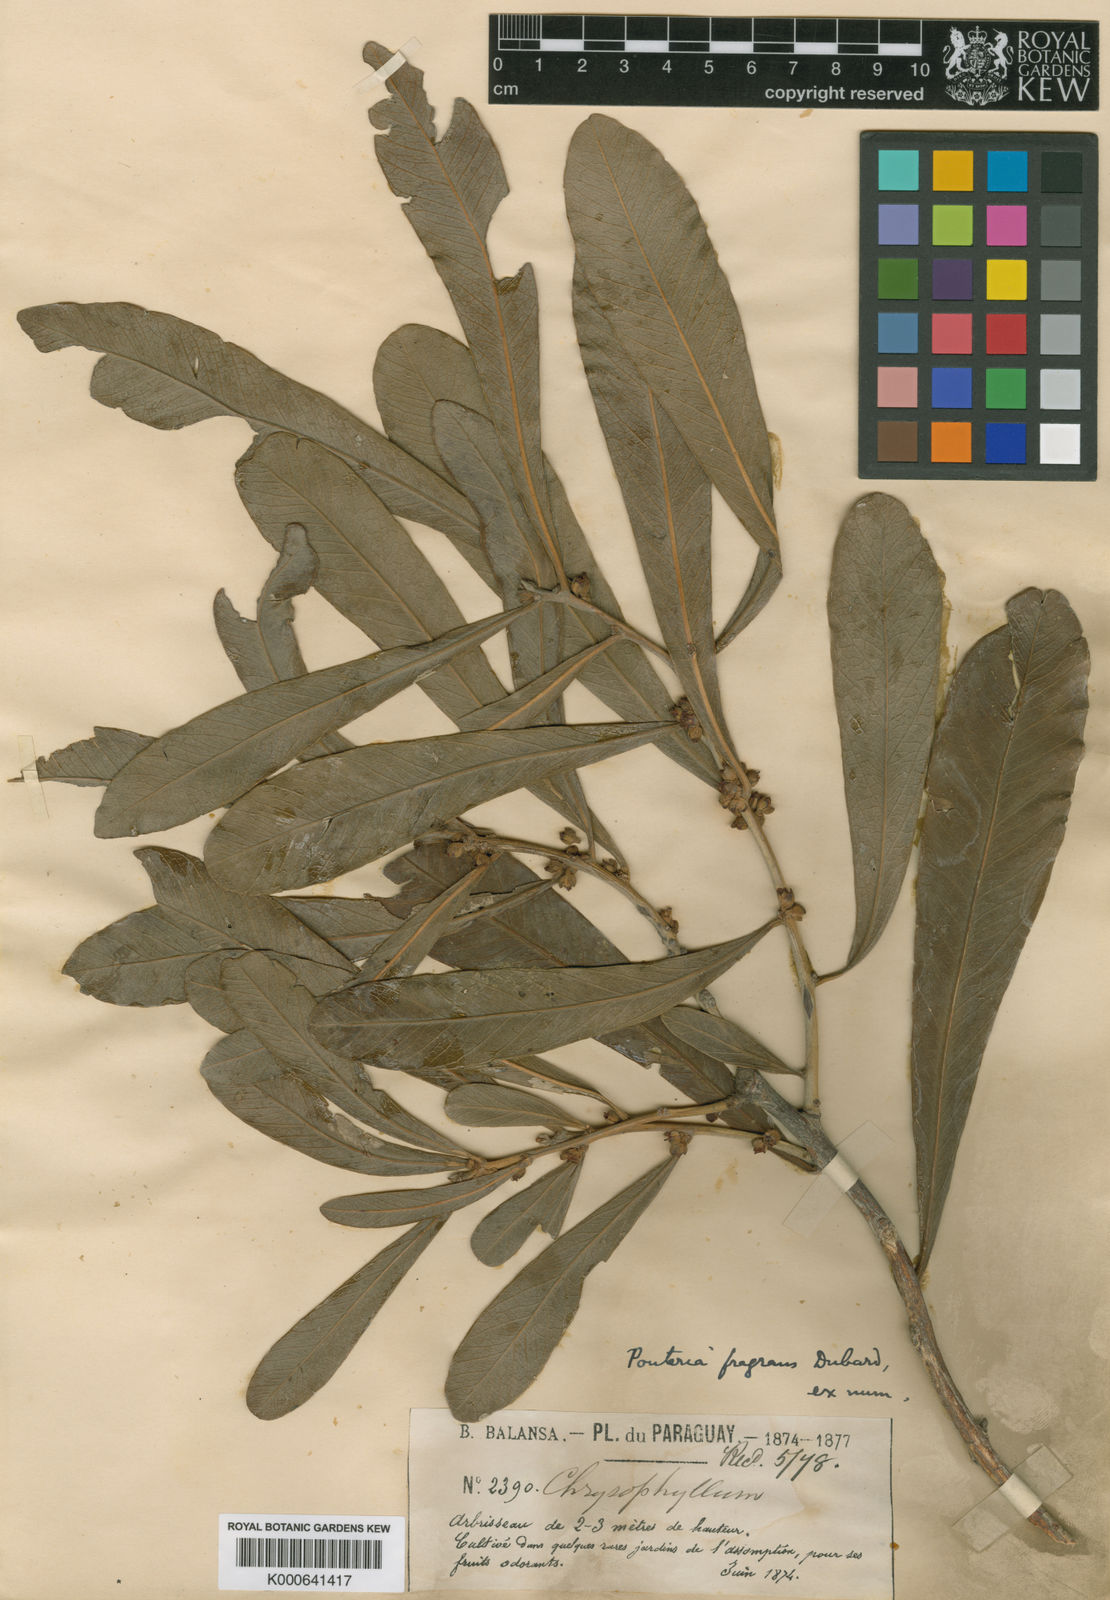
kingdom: Plantae
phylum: Tracheophyta
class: Magnoliopsida
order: Ericales
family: Sapotaceae
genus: Pouteria
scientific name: Pouteria fragrans
